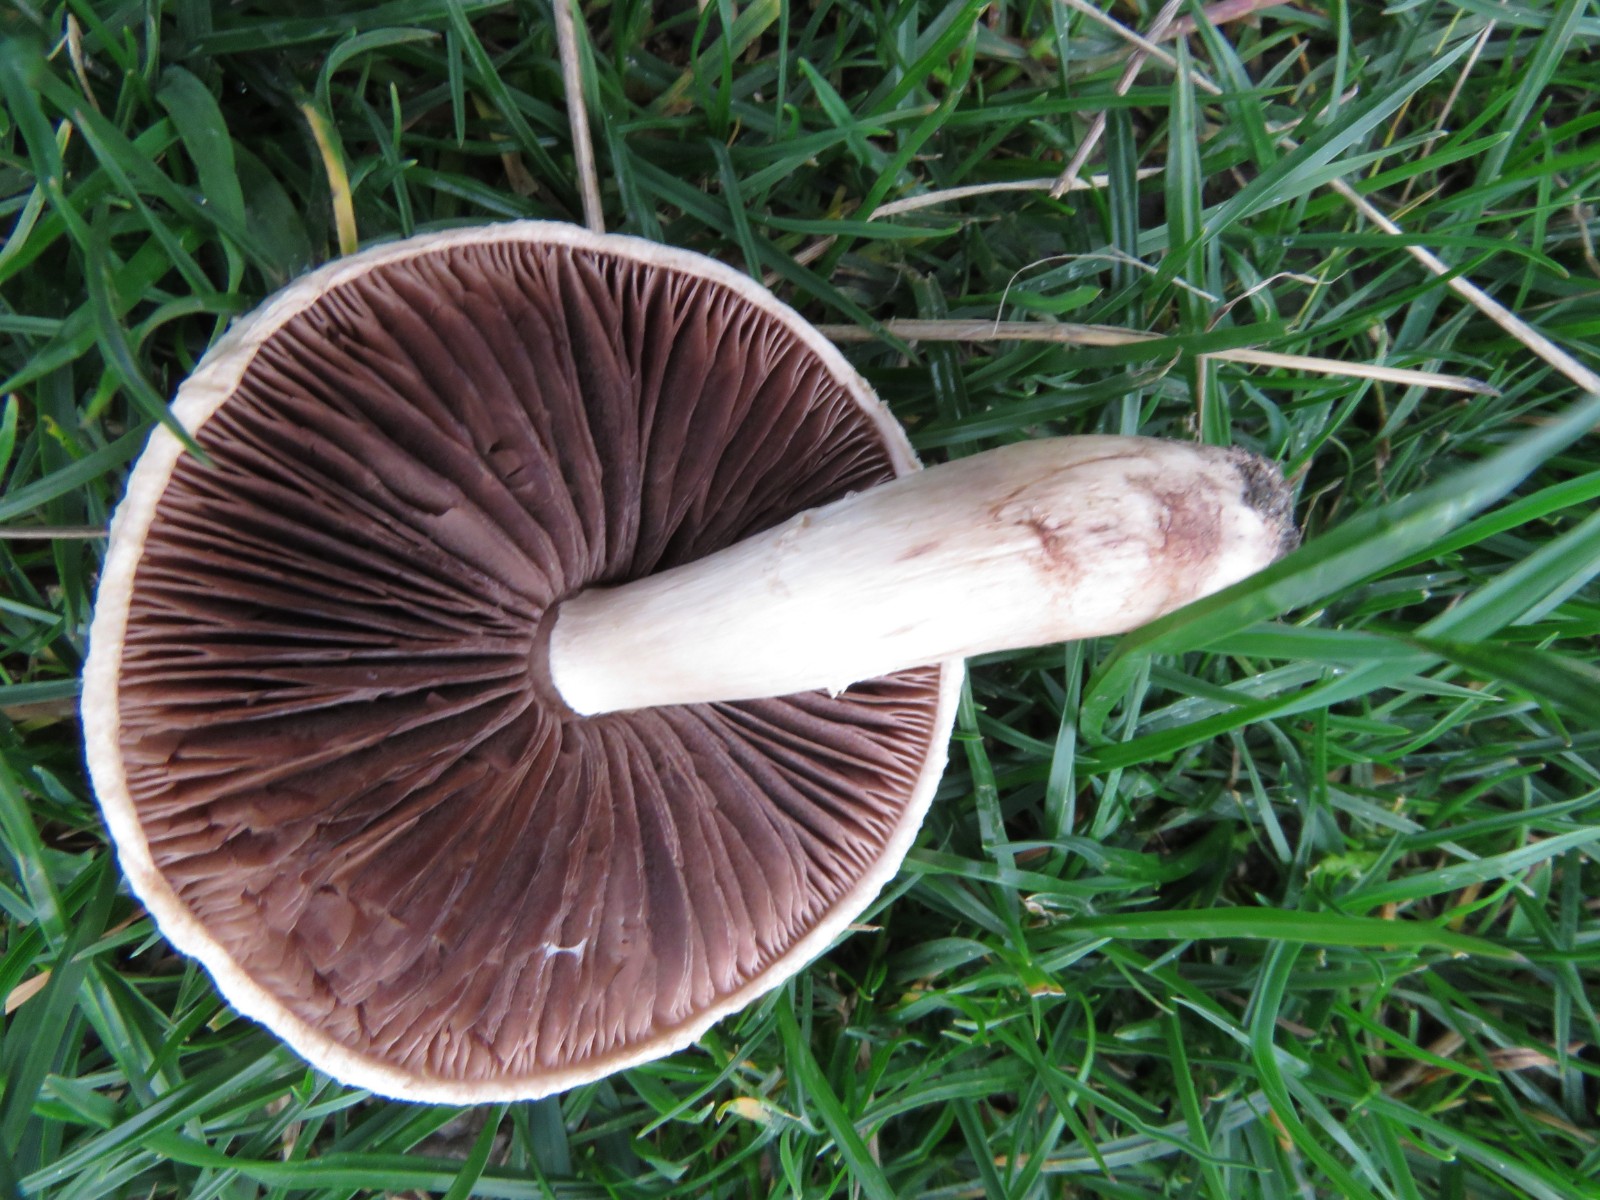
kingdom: Fungi
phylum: Basidiomycota
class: Agaricomycetes
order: Agaricales
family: Agaricaceae
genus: Agaricus
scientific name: Agaricus campestris
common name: mark-champignon
